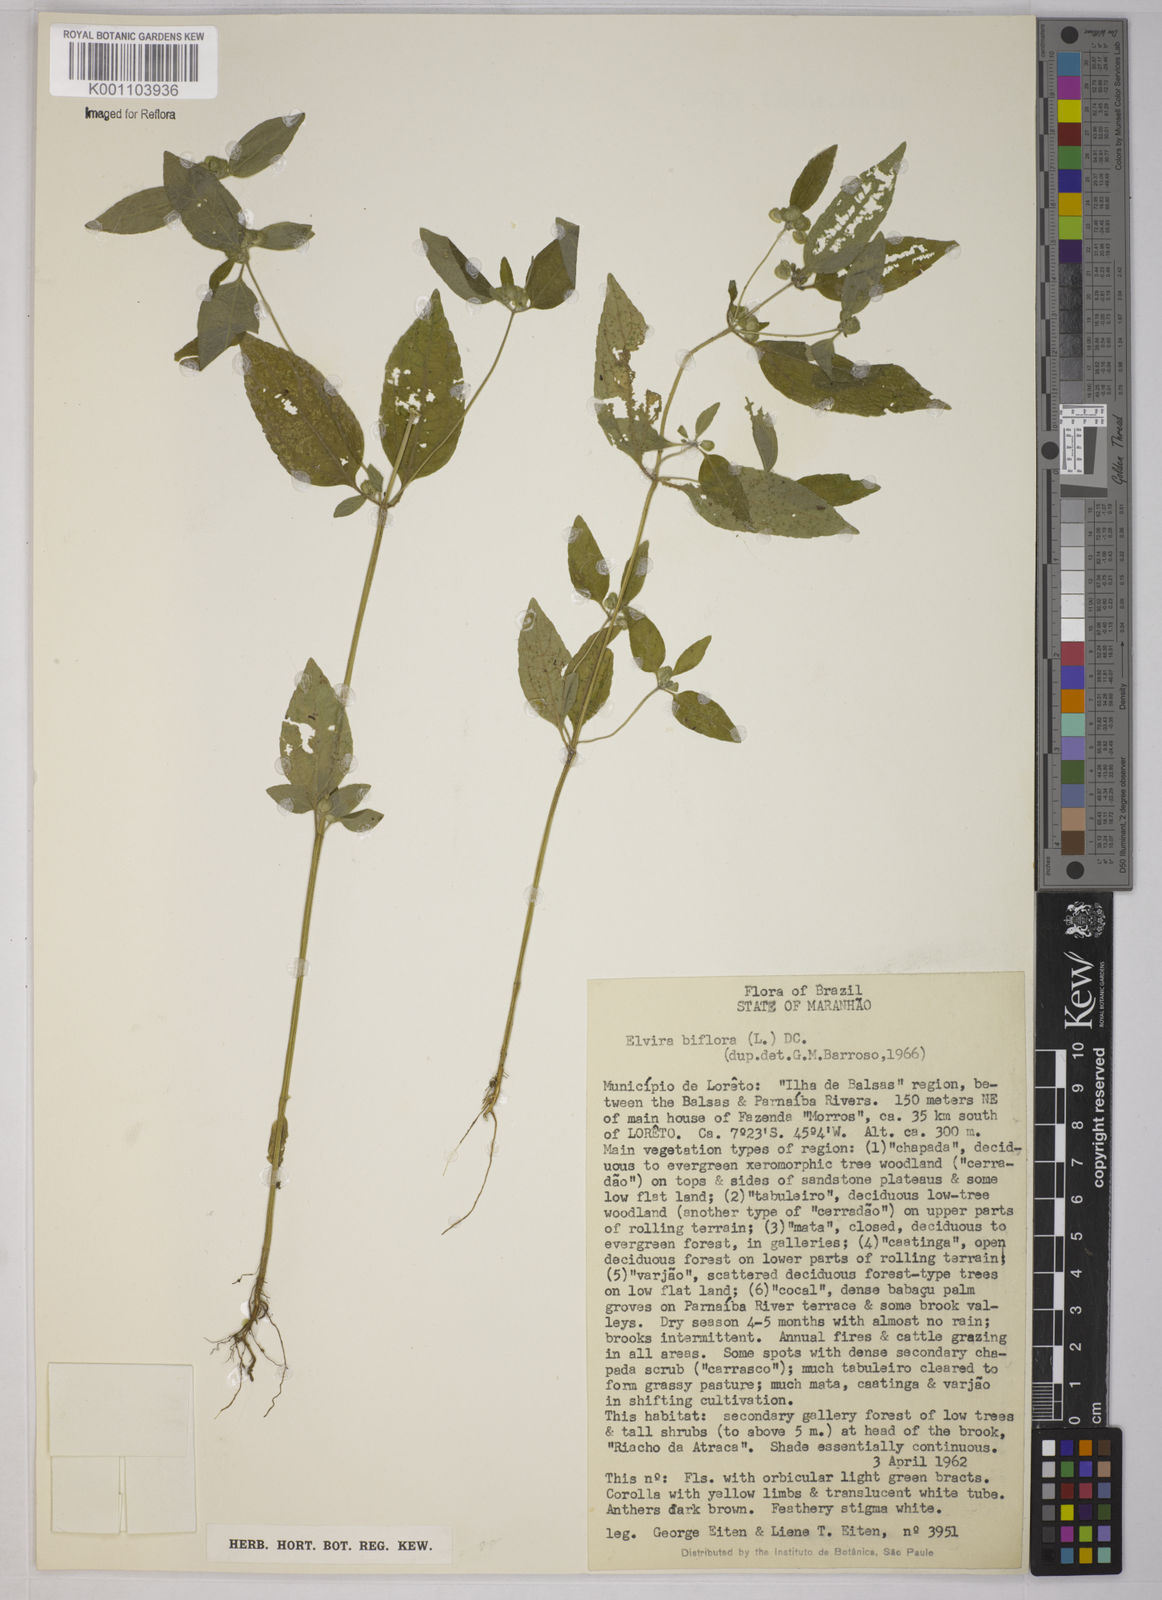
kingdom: Plantae
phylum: Tracheophyta
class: Magnoliopsida
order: Asterales
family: Asteraceae
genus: Delilia
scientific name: Delilia biflora
